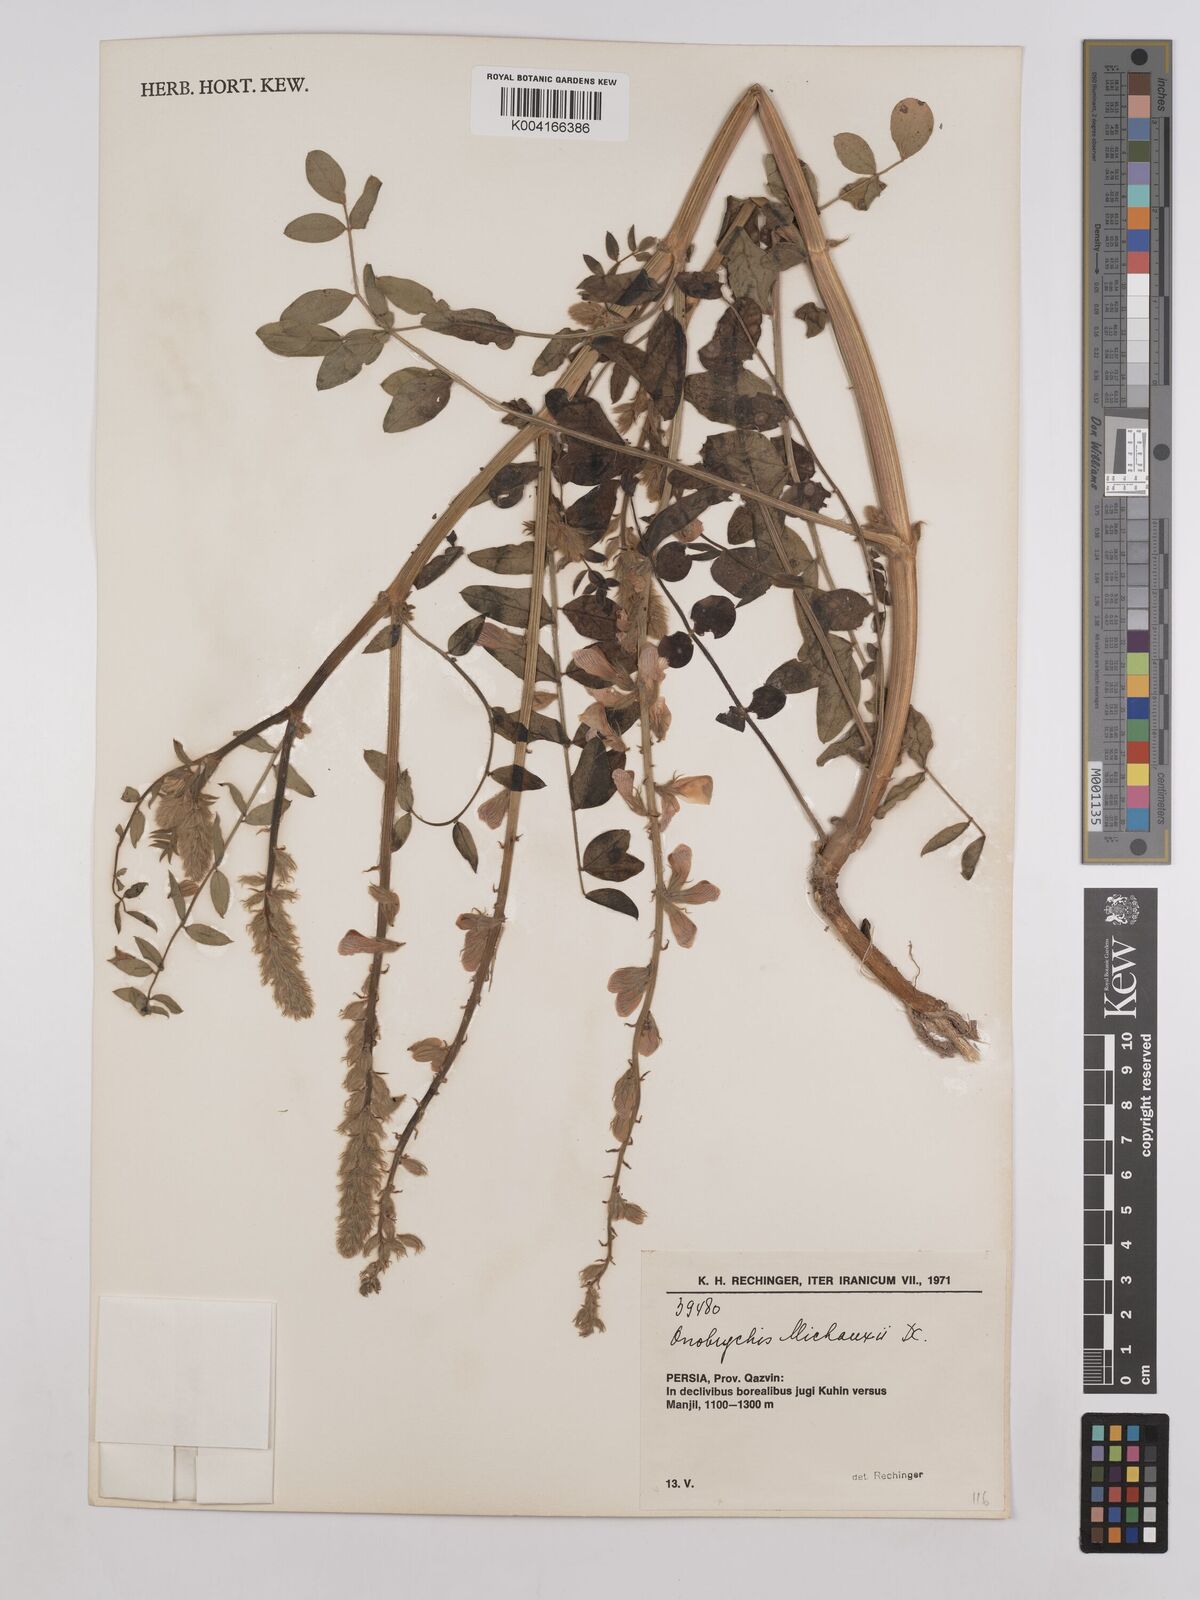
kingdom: Plantae
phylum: Tracheophyta
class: Magnoliopsida
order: Fabales
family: Fabaceae
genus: Onobrychis
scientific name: Onobrychis michauxii
